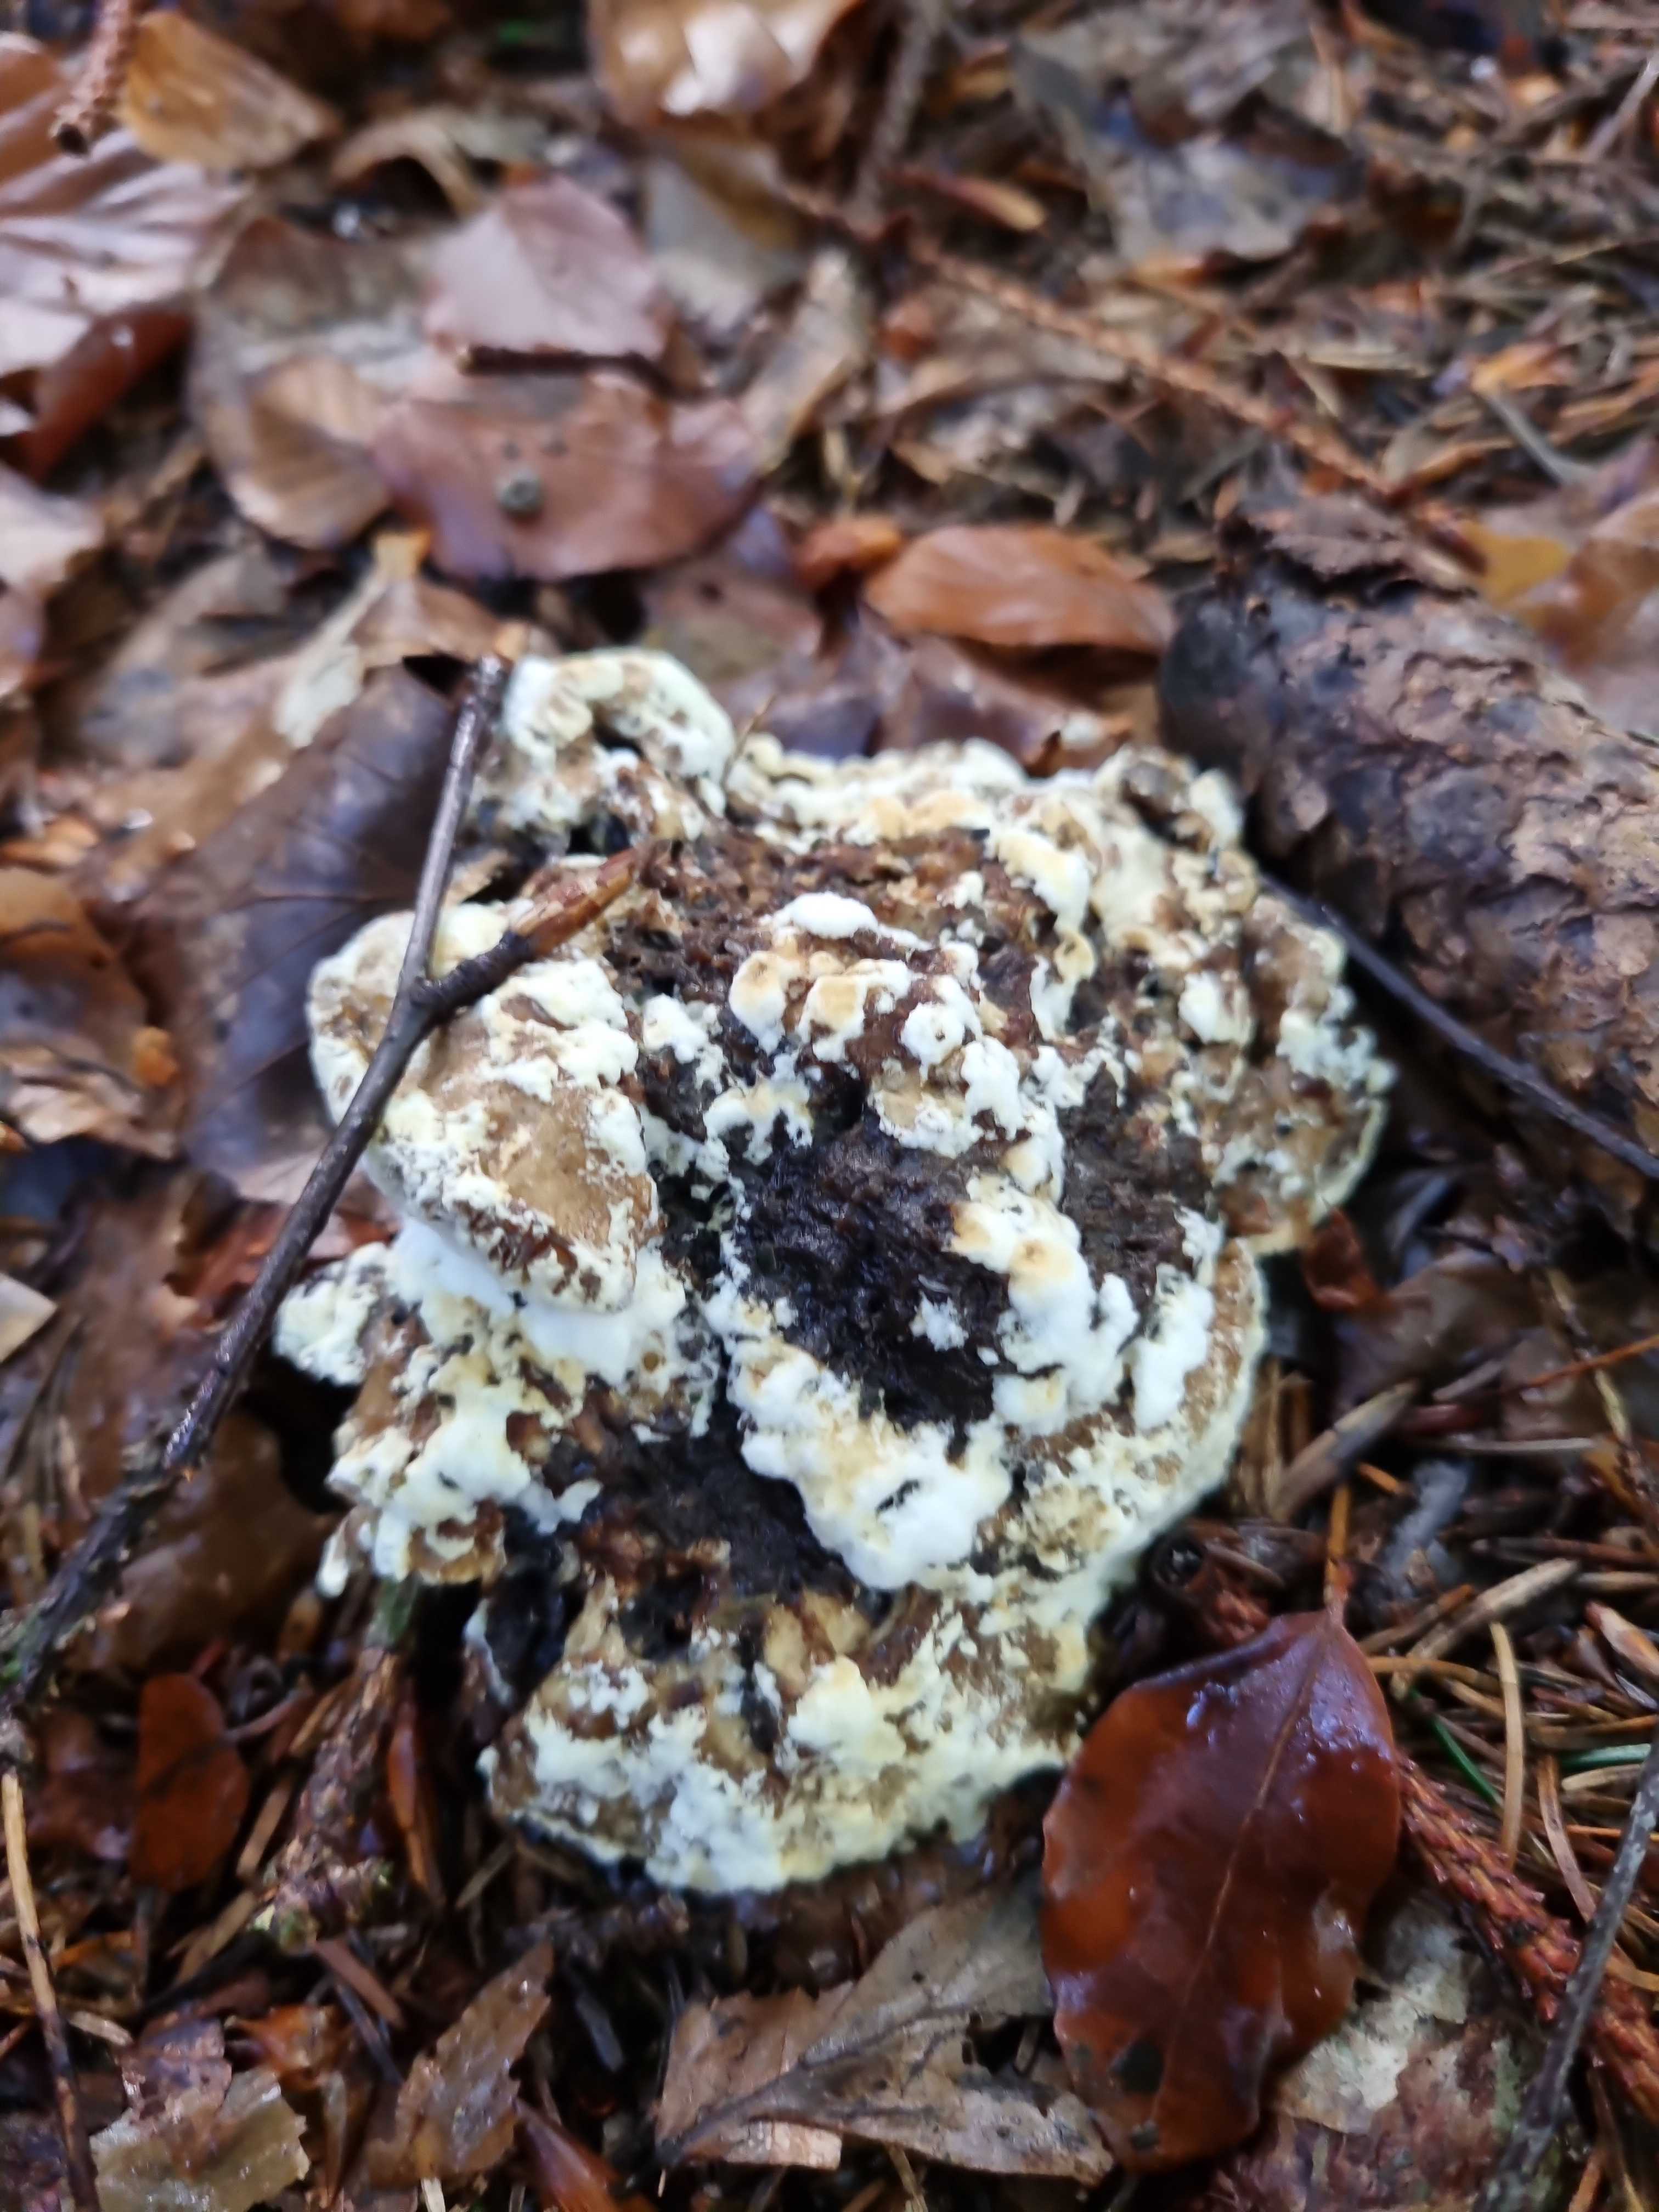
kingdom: Fungi
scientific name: Fungi
